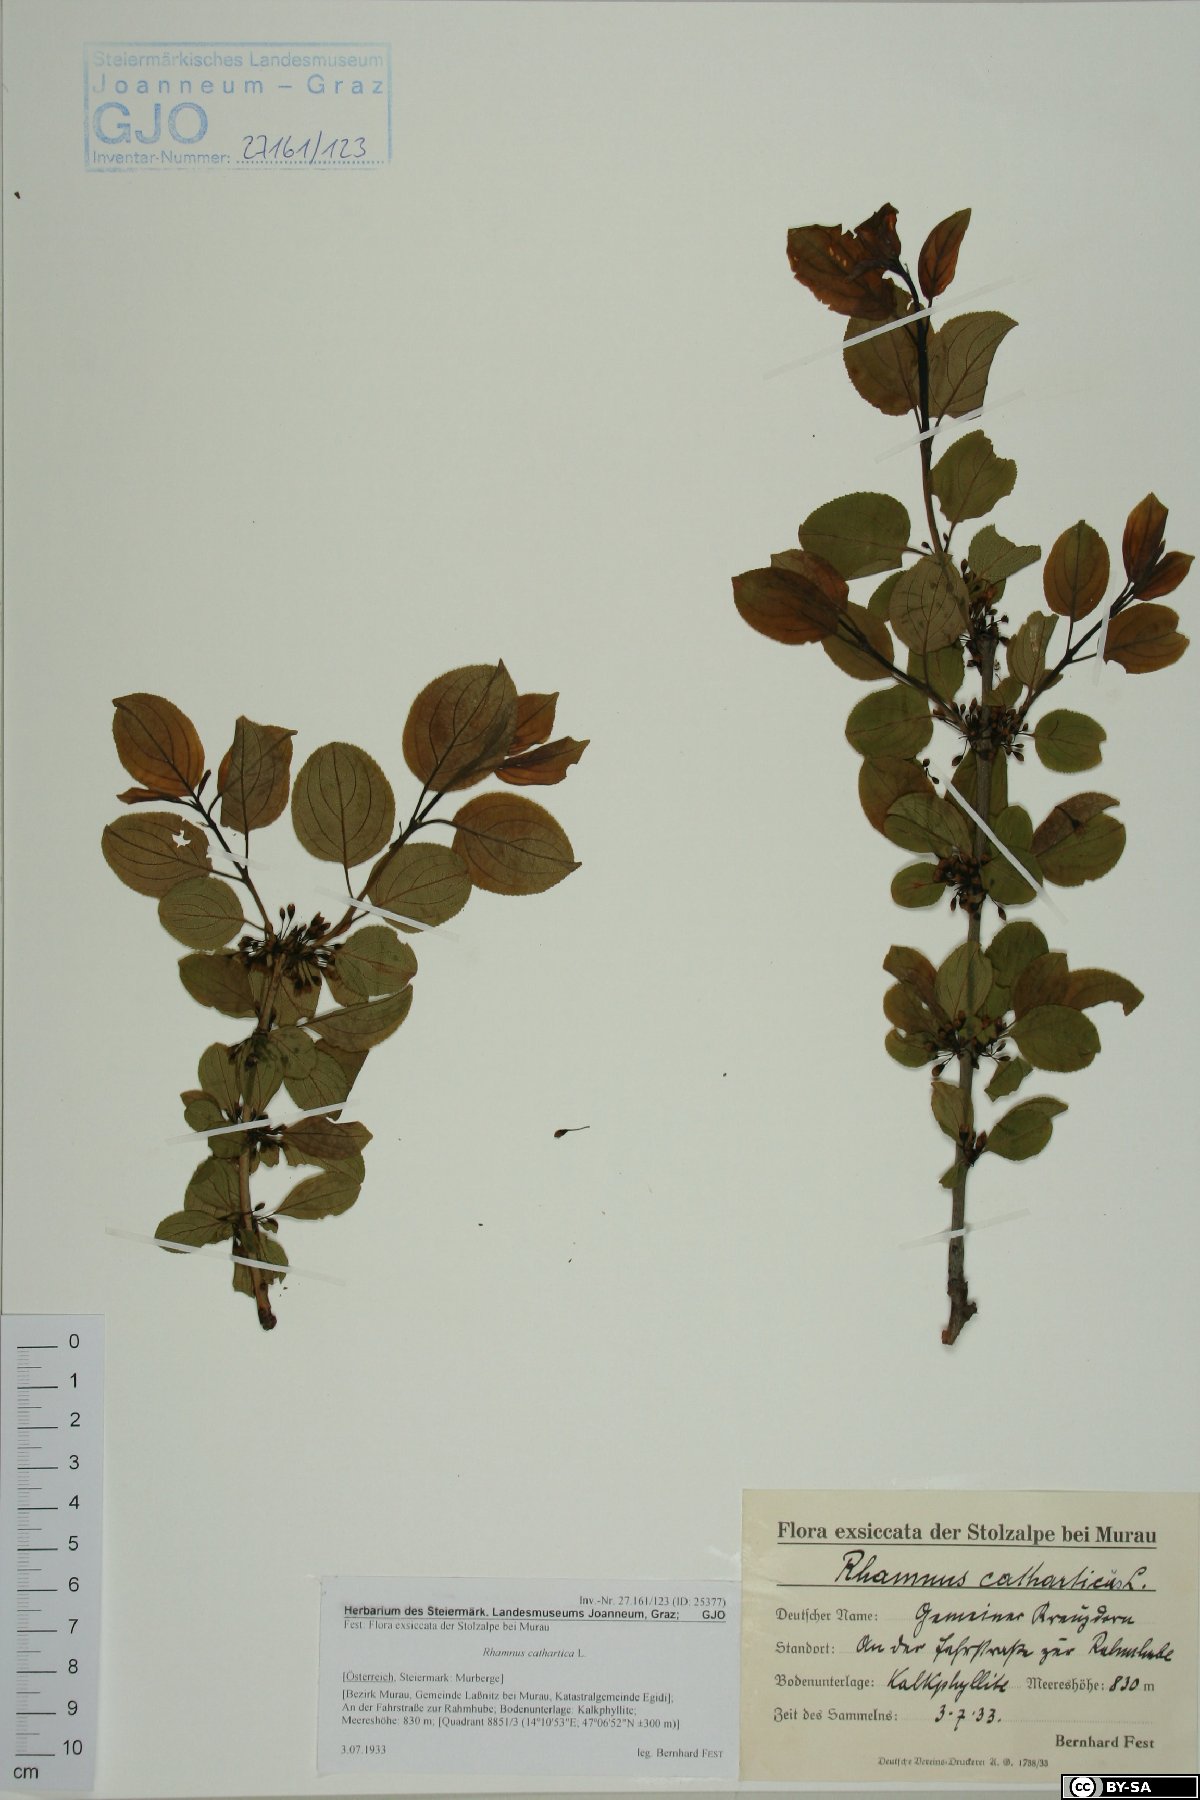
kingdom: Plantae
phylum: Tracheophyta
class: Magnoliopsida
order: Rosales
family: Rhamnaceae
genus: Rhamnus
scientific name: Rhamnus cathartica
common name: Common buckthorn
